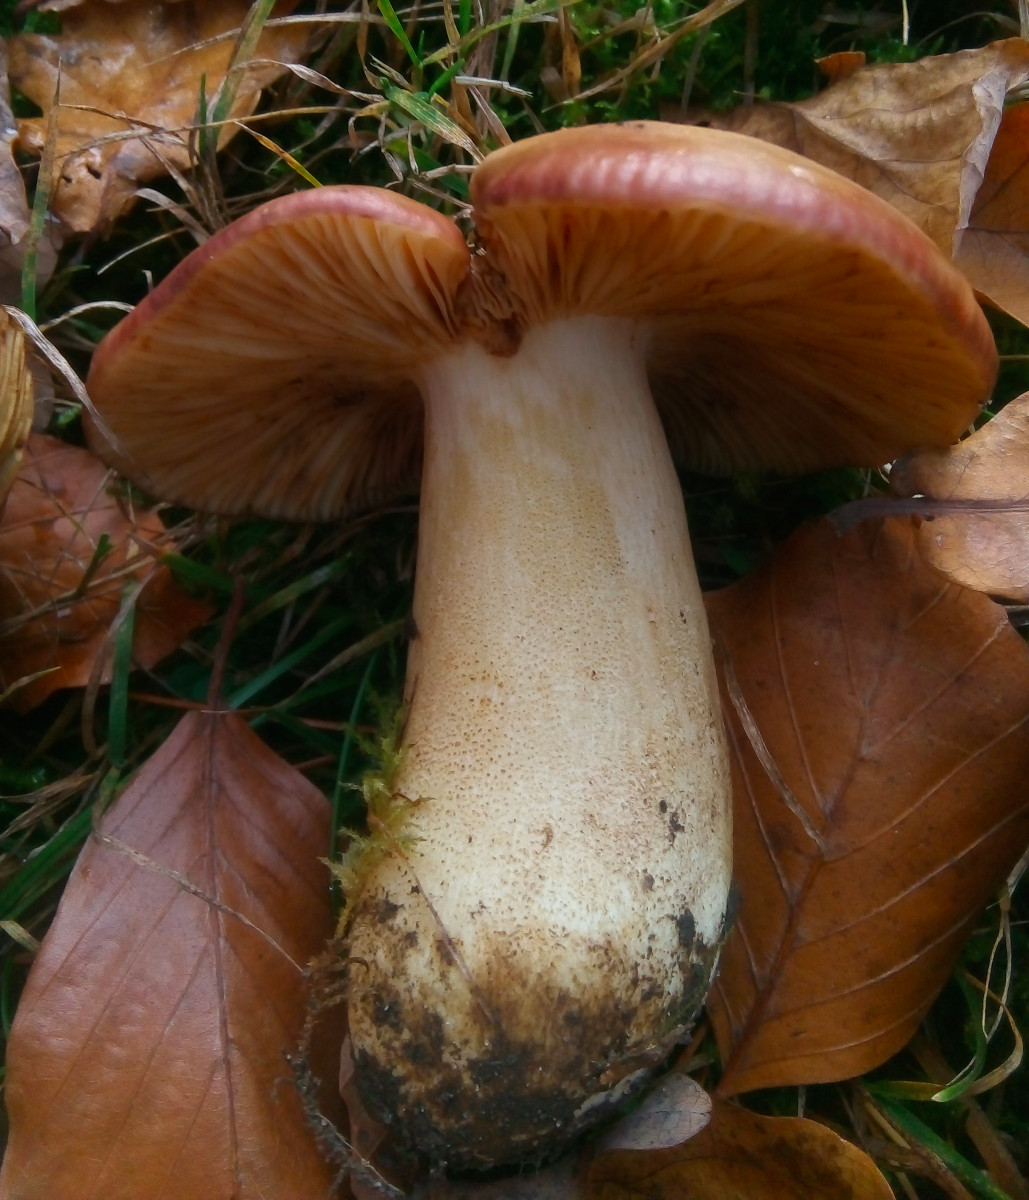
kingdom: Fungi
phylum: Basidiomycota
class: Agaricomycetes
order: Russulales
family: Russulaceae
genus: Russula
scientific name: Russula viscida
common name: knippe-skørhat
